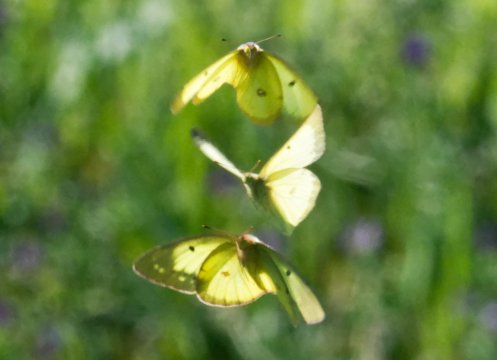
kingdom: Animalia
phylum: Arthropoda
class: Insecta
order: Lepidoptera
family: Pieridae
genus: Colias
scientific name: Colias philodice
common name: Clouded Sulphur
